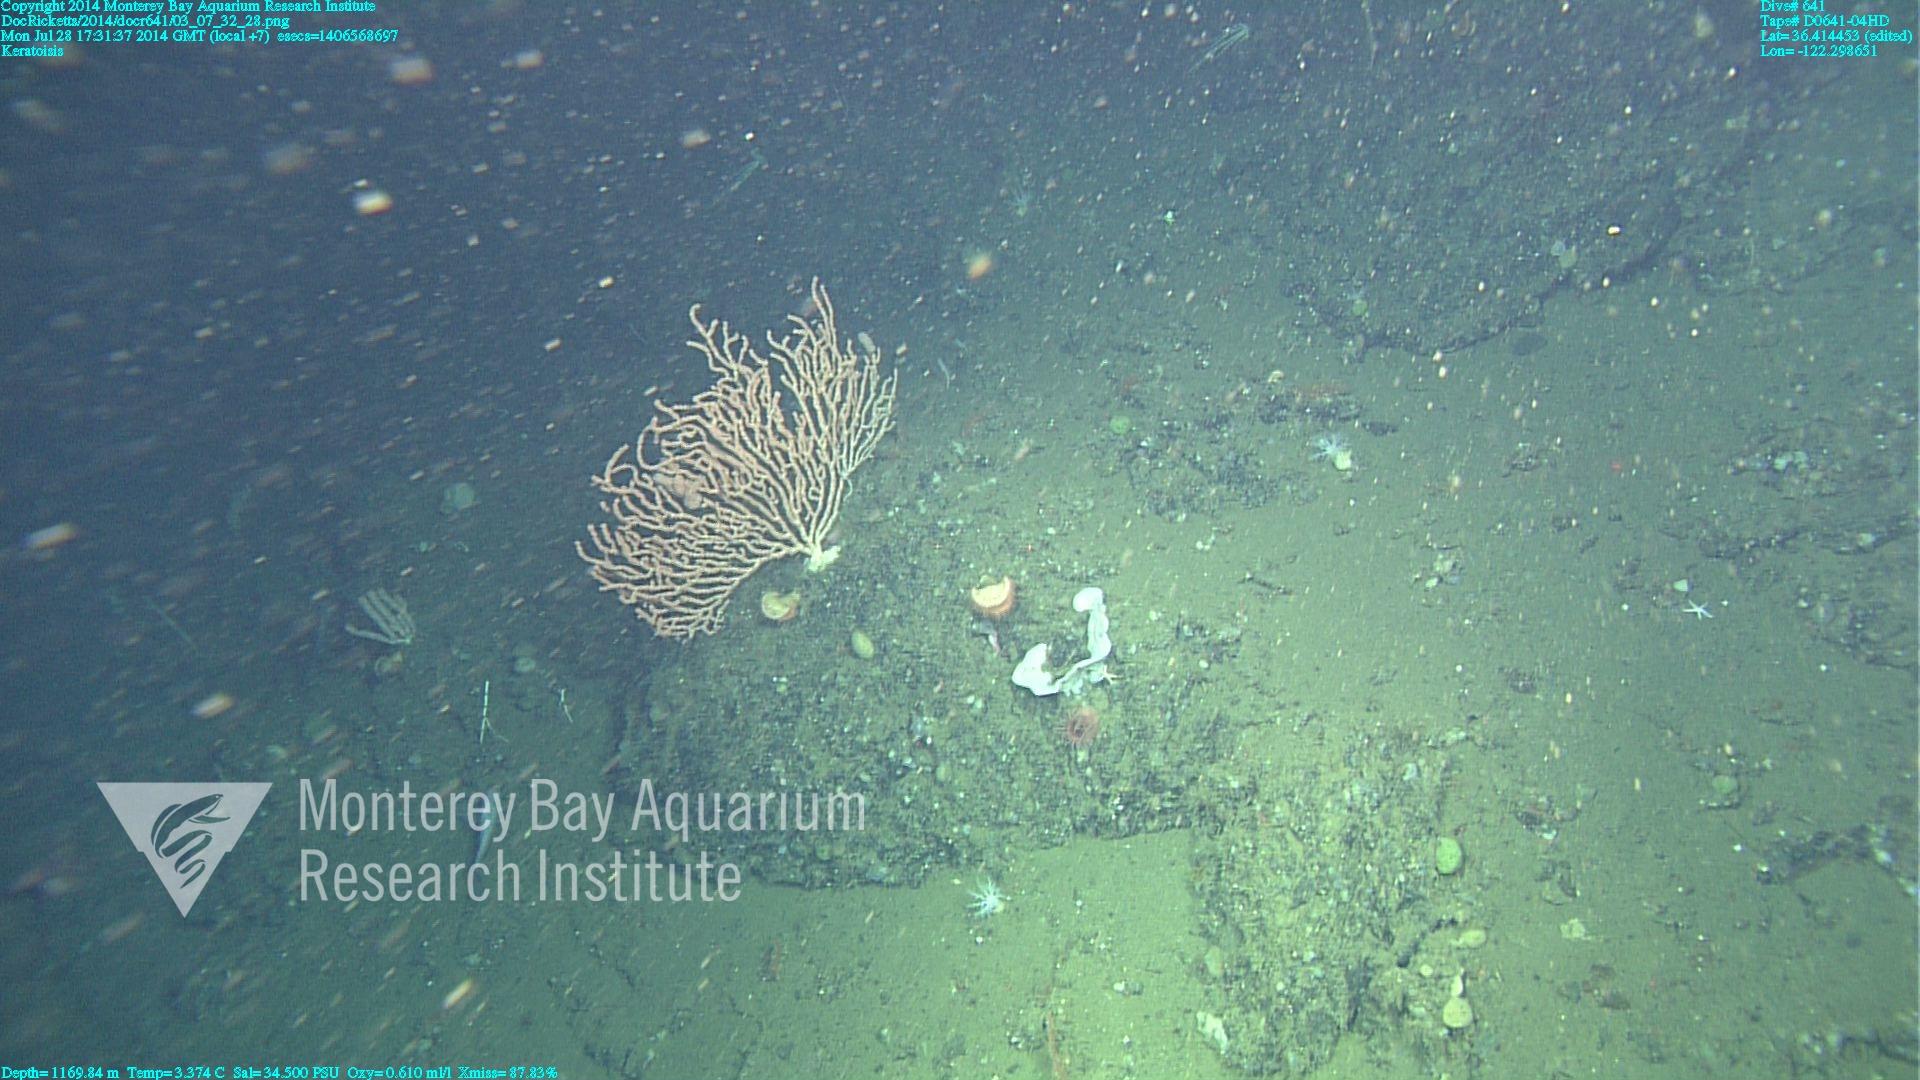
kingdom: Animalia
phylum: Cnidaria
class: Anthozoa
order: Scleralcyonacea
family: Keratoisididae
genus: Keratoisis
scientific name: Keratoisis
